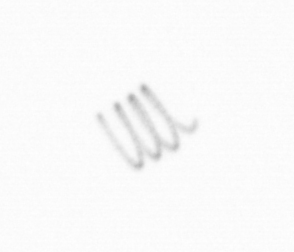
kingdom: Chromista
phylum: Ochrophyta
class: Bacillariophyceae
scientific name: Bacillariophyceae
